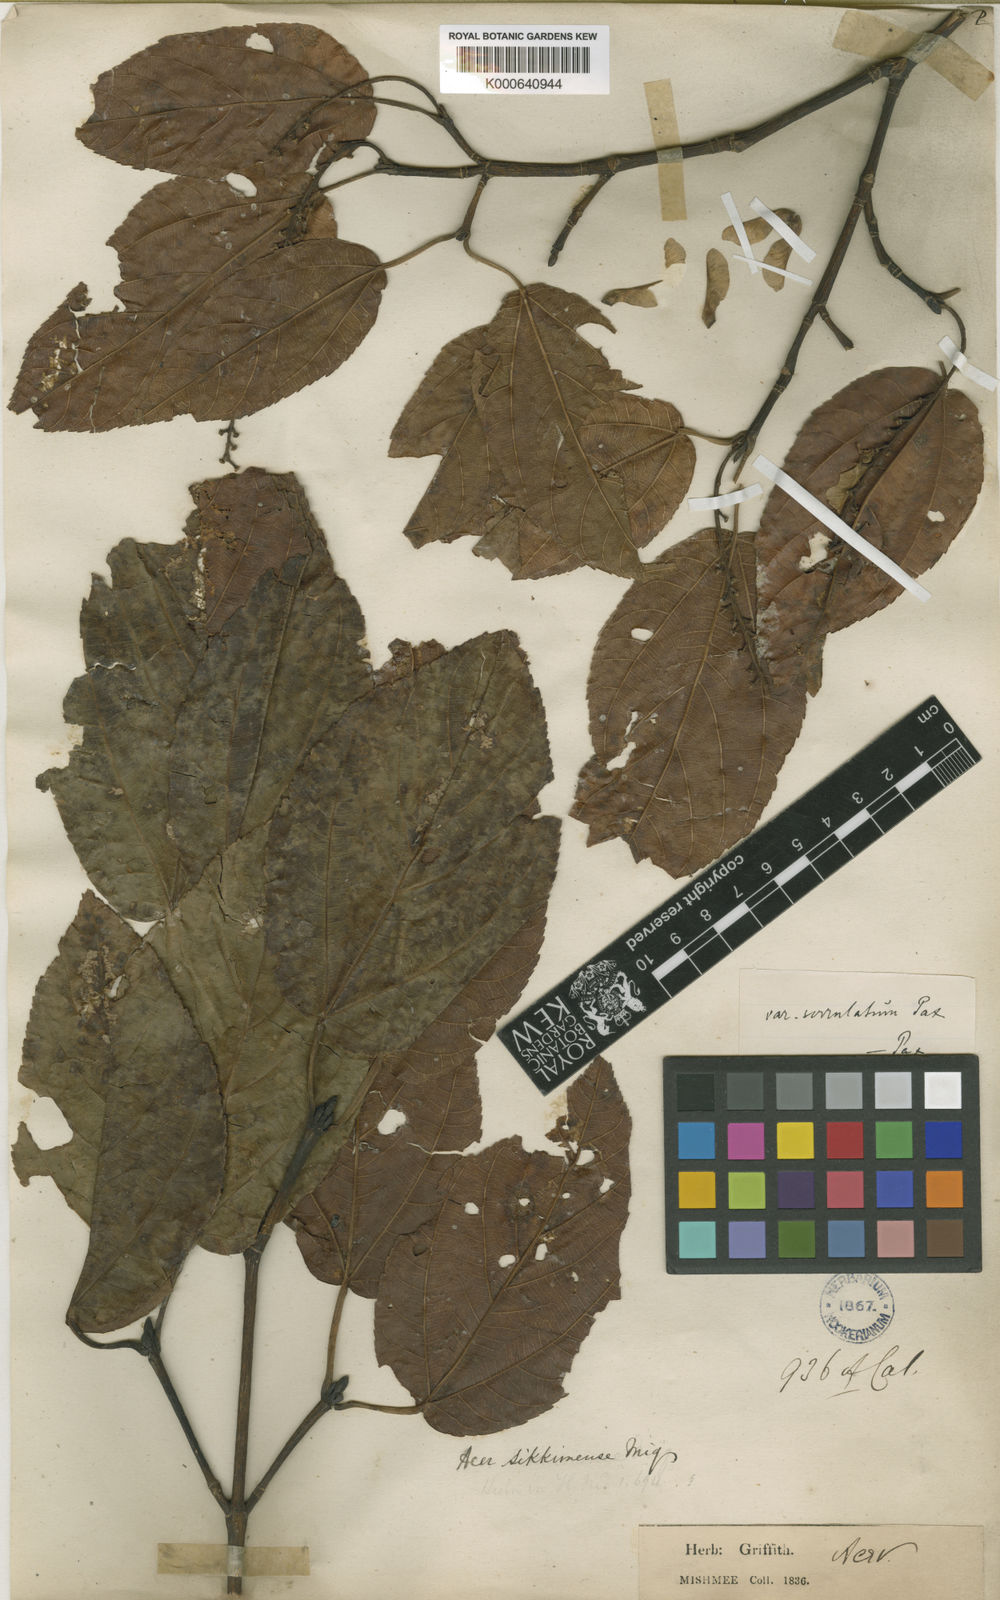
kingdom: Plantae
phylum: Tracheophyta
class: Magnoliopsida
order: Sapindales
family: Sapindaceae
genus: Acer
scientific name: Acer sikkimense
